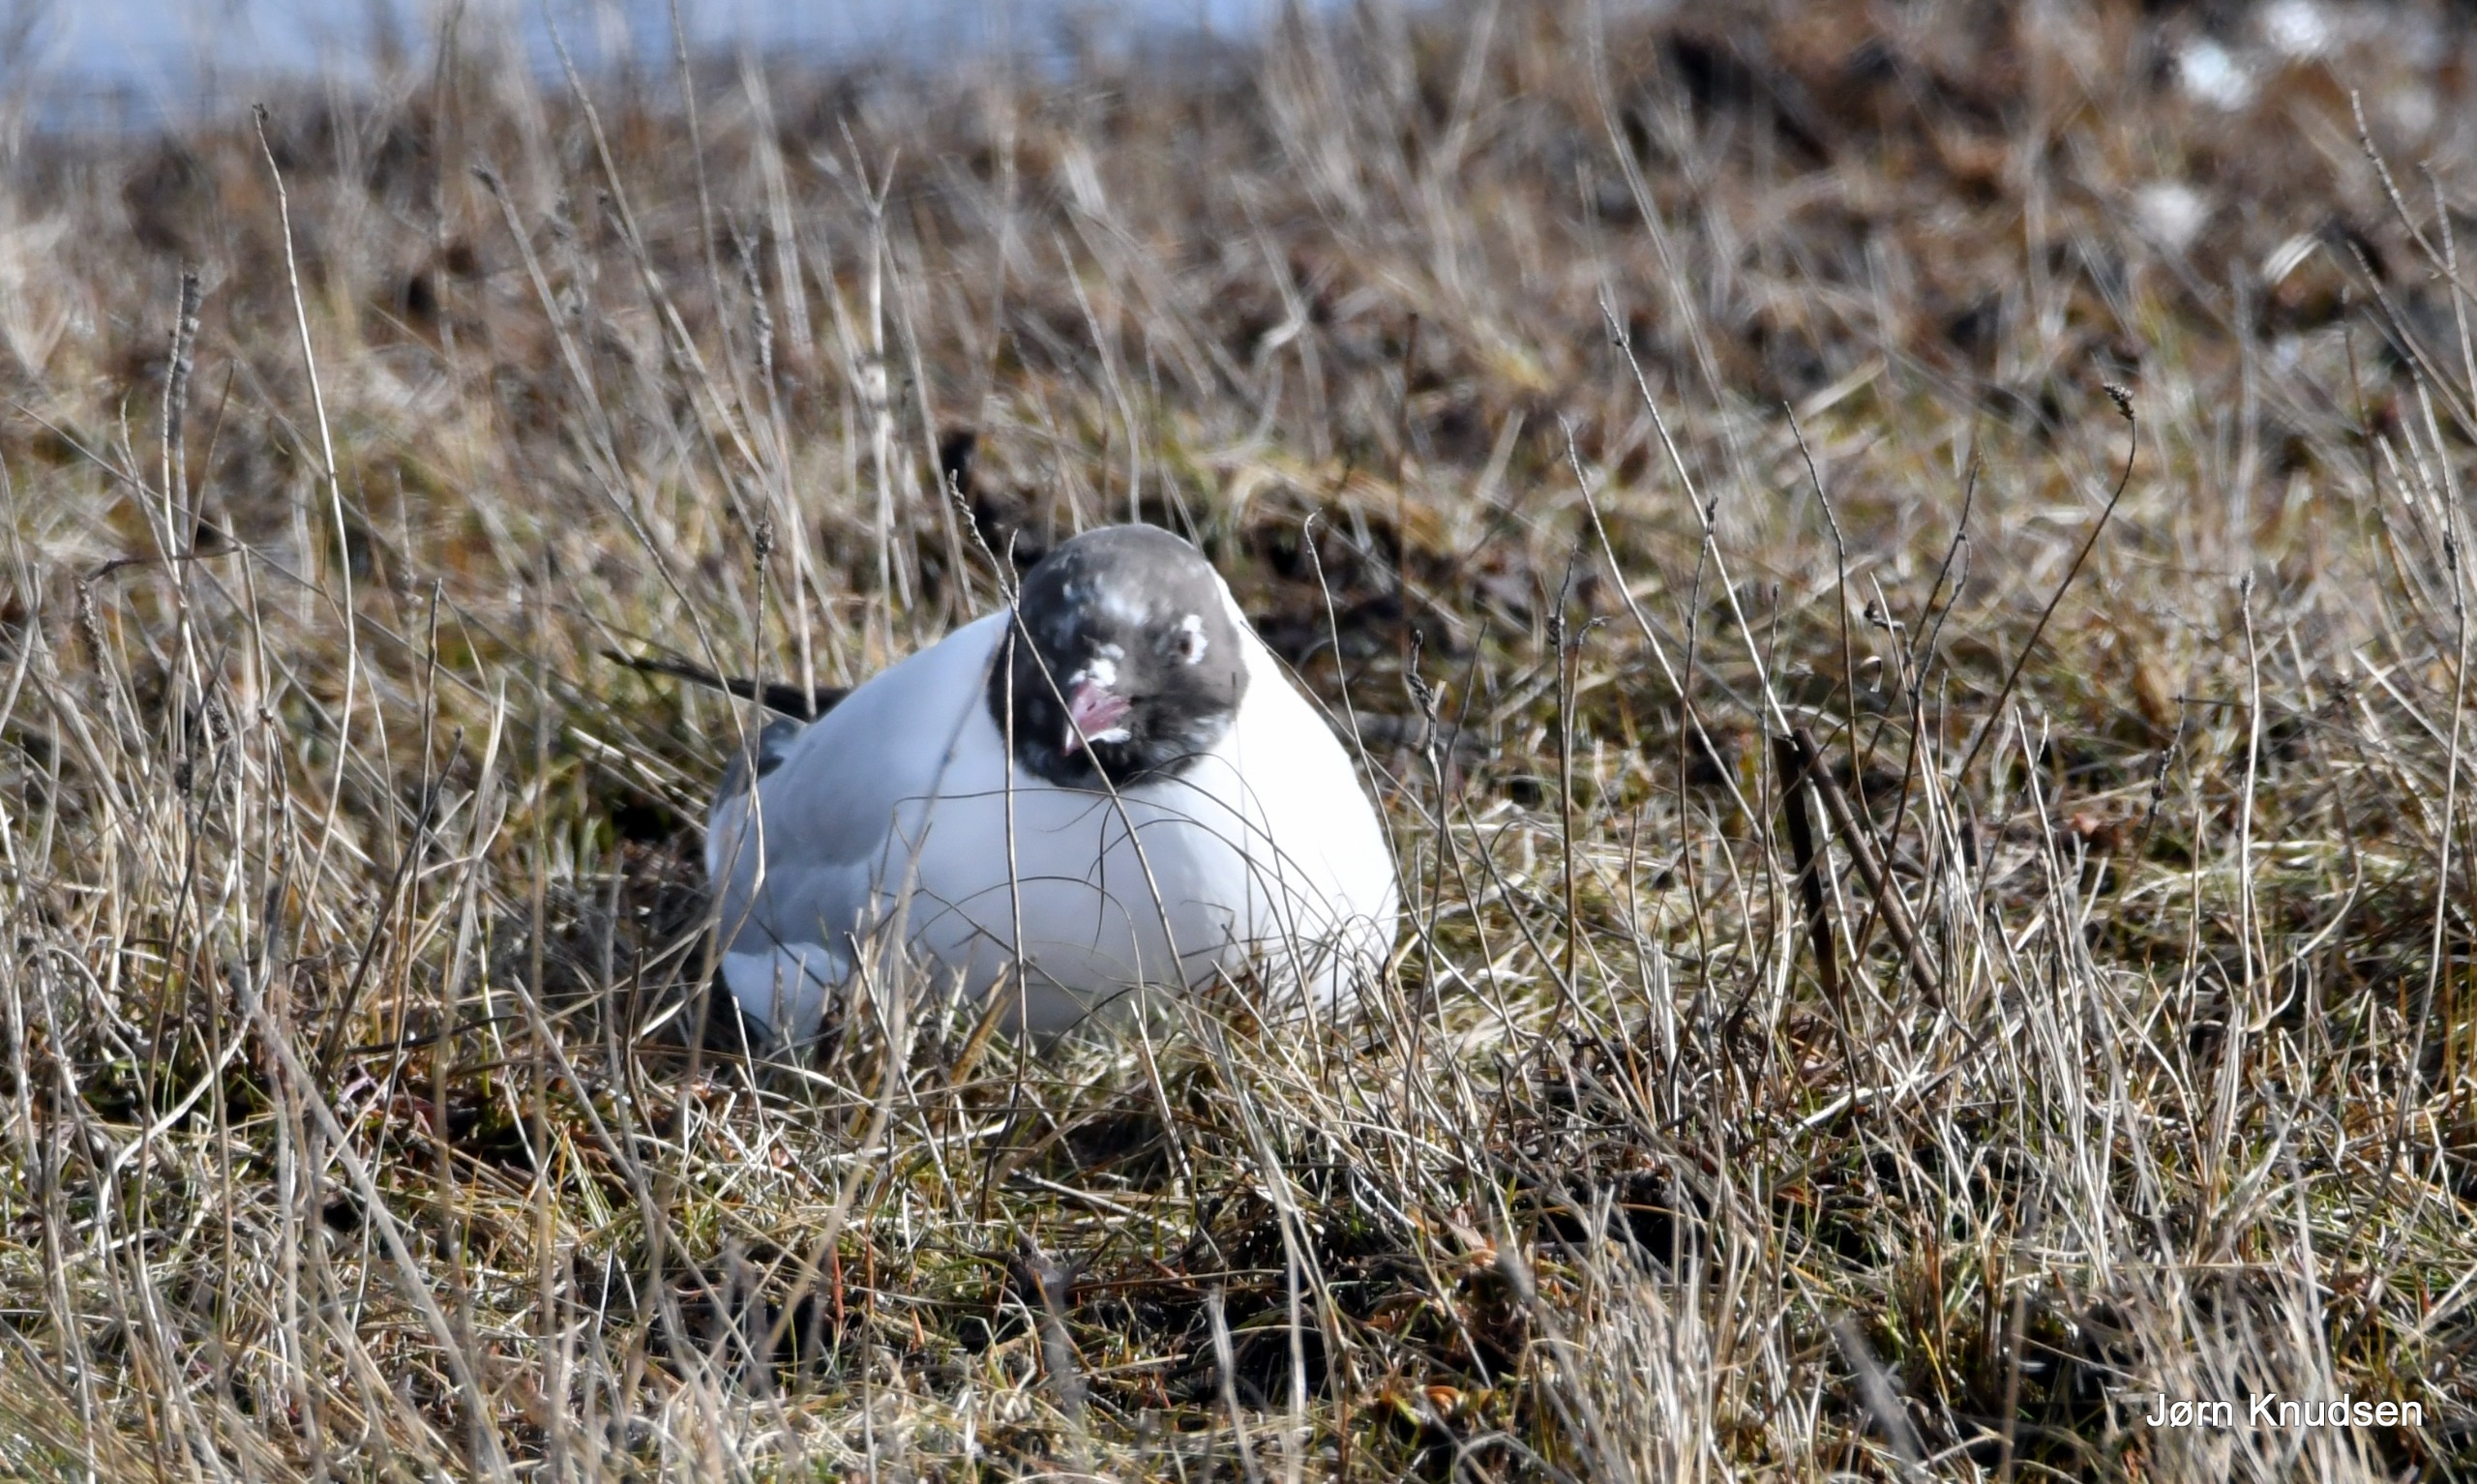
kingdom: Animalia
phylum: Chordata
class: Aves
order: Charadriiformes
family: Laridae
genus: Chroicocephalus
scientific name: Chroicocephalus ridibundus
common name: Hættemåge
